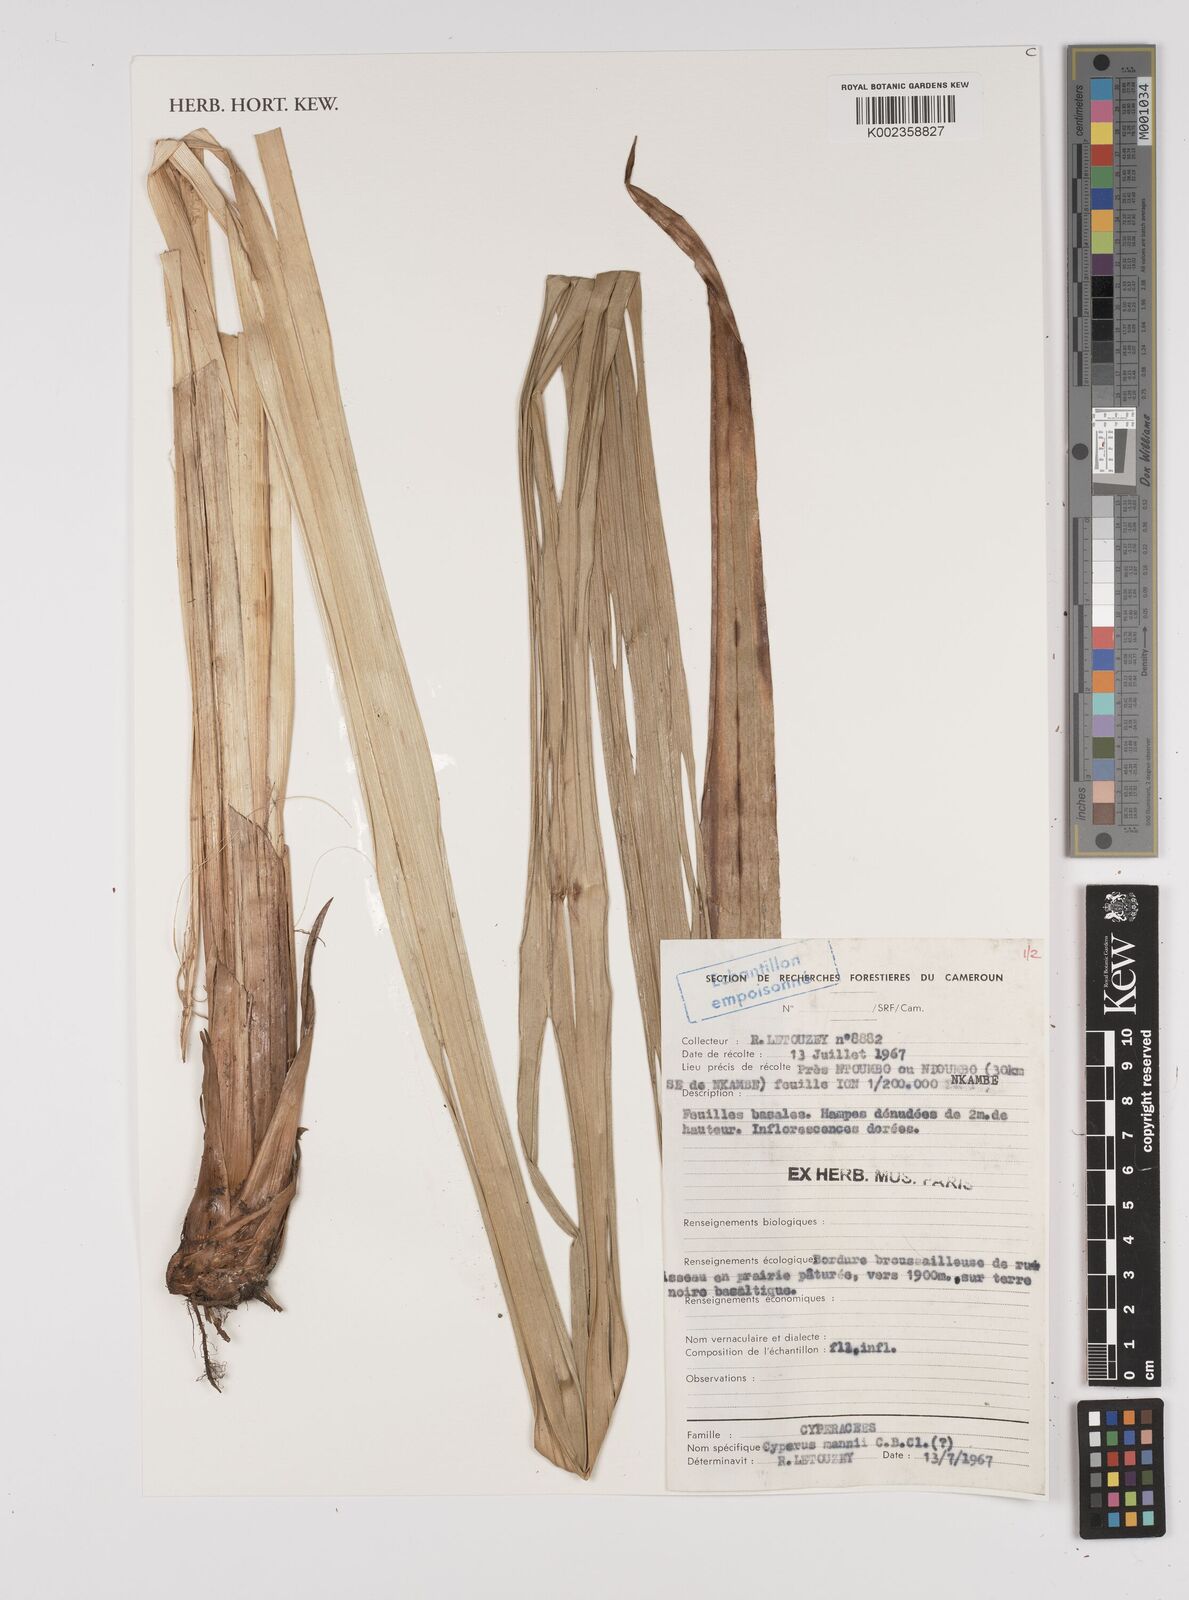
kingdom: Plantae
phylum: Tracheophyta
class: Liliopsida
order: Poales
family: Cyperaceae
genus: Cyperus
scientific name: Cyperus baronii
